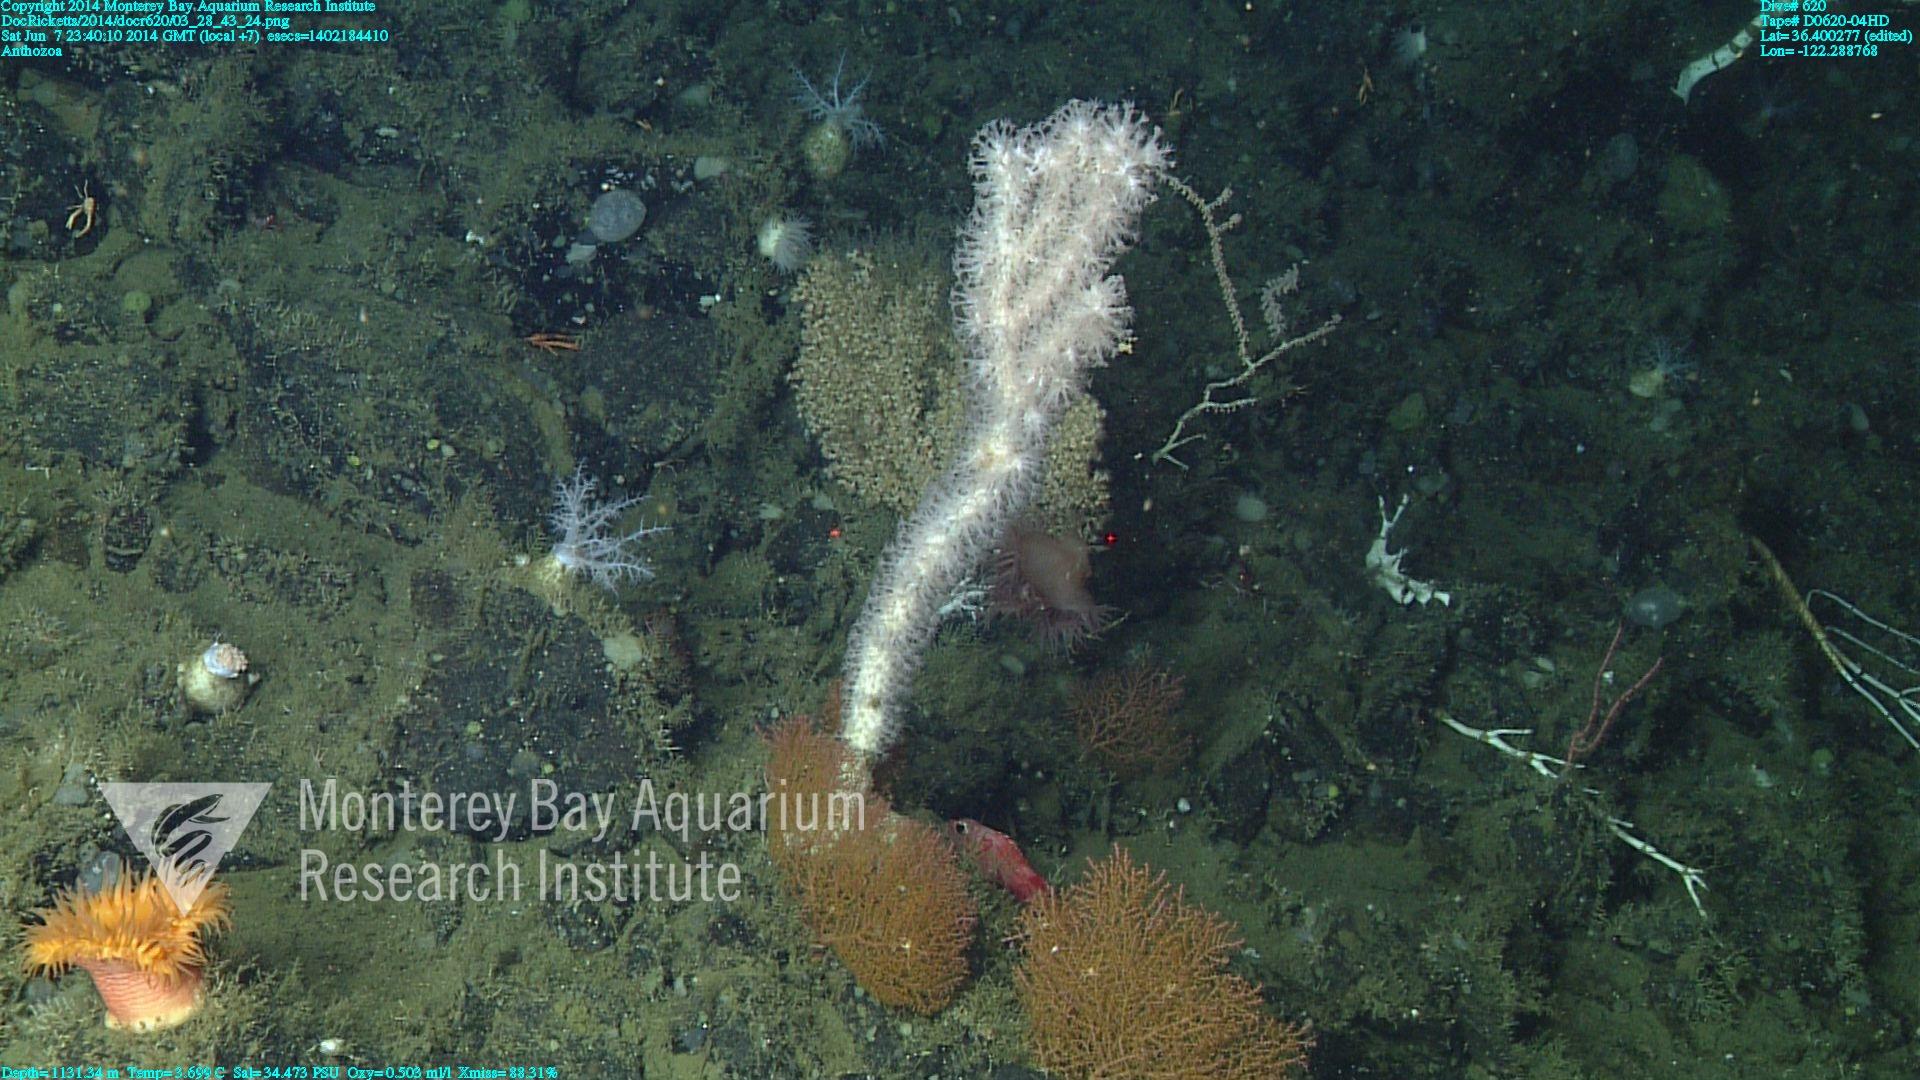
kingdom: Animalia
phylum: Cnidaria
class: Anthozoa
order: Scleralcyonacea
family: Coralliidae
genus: Sibogagorgia
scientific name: Sibogagorgia cauliflora
